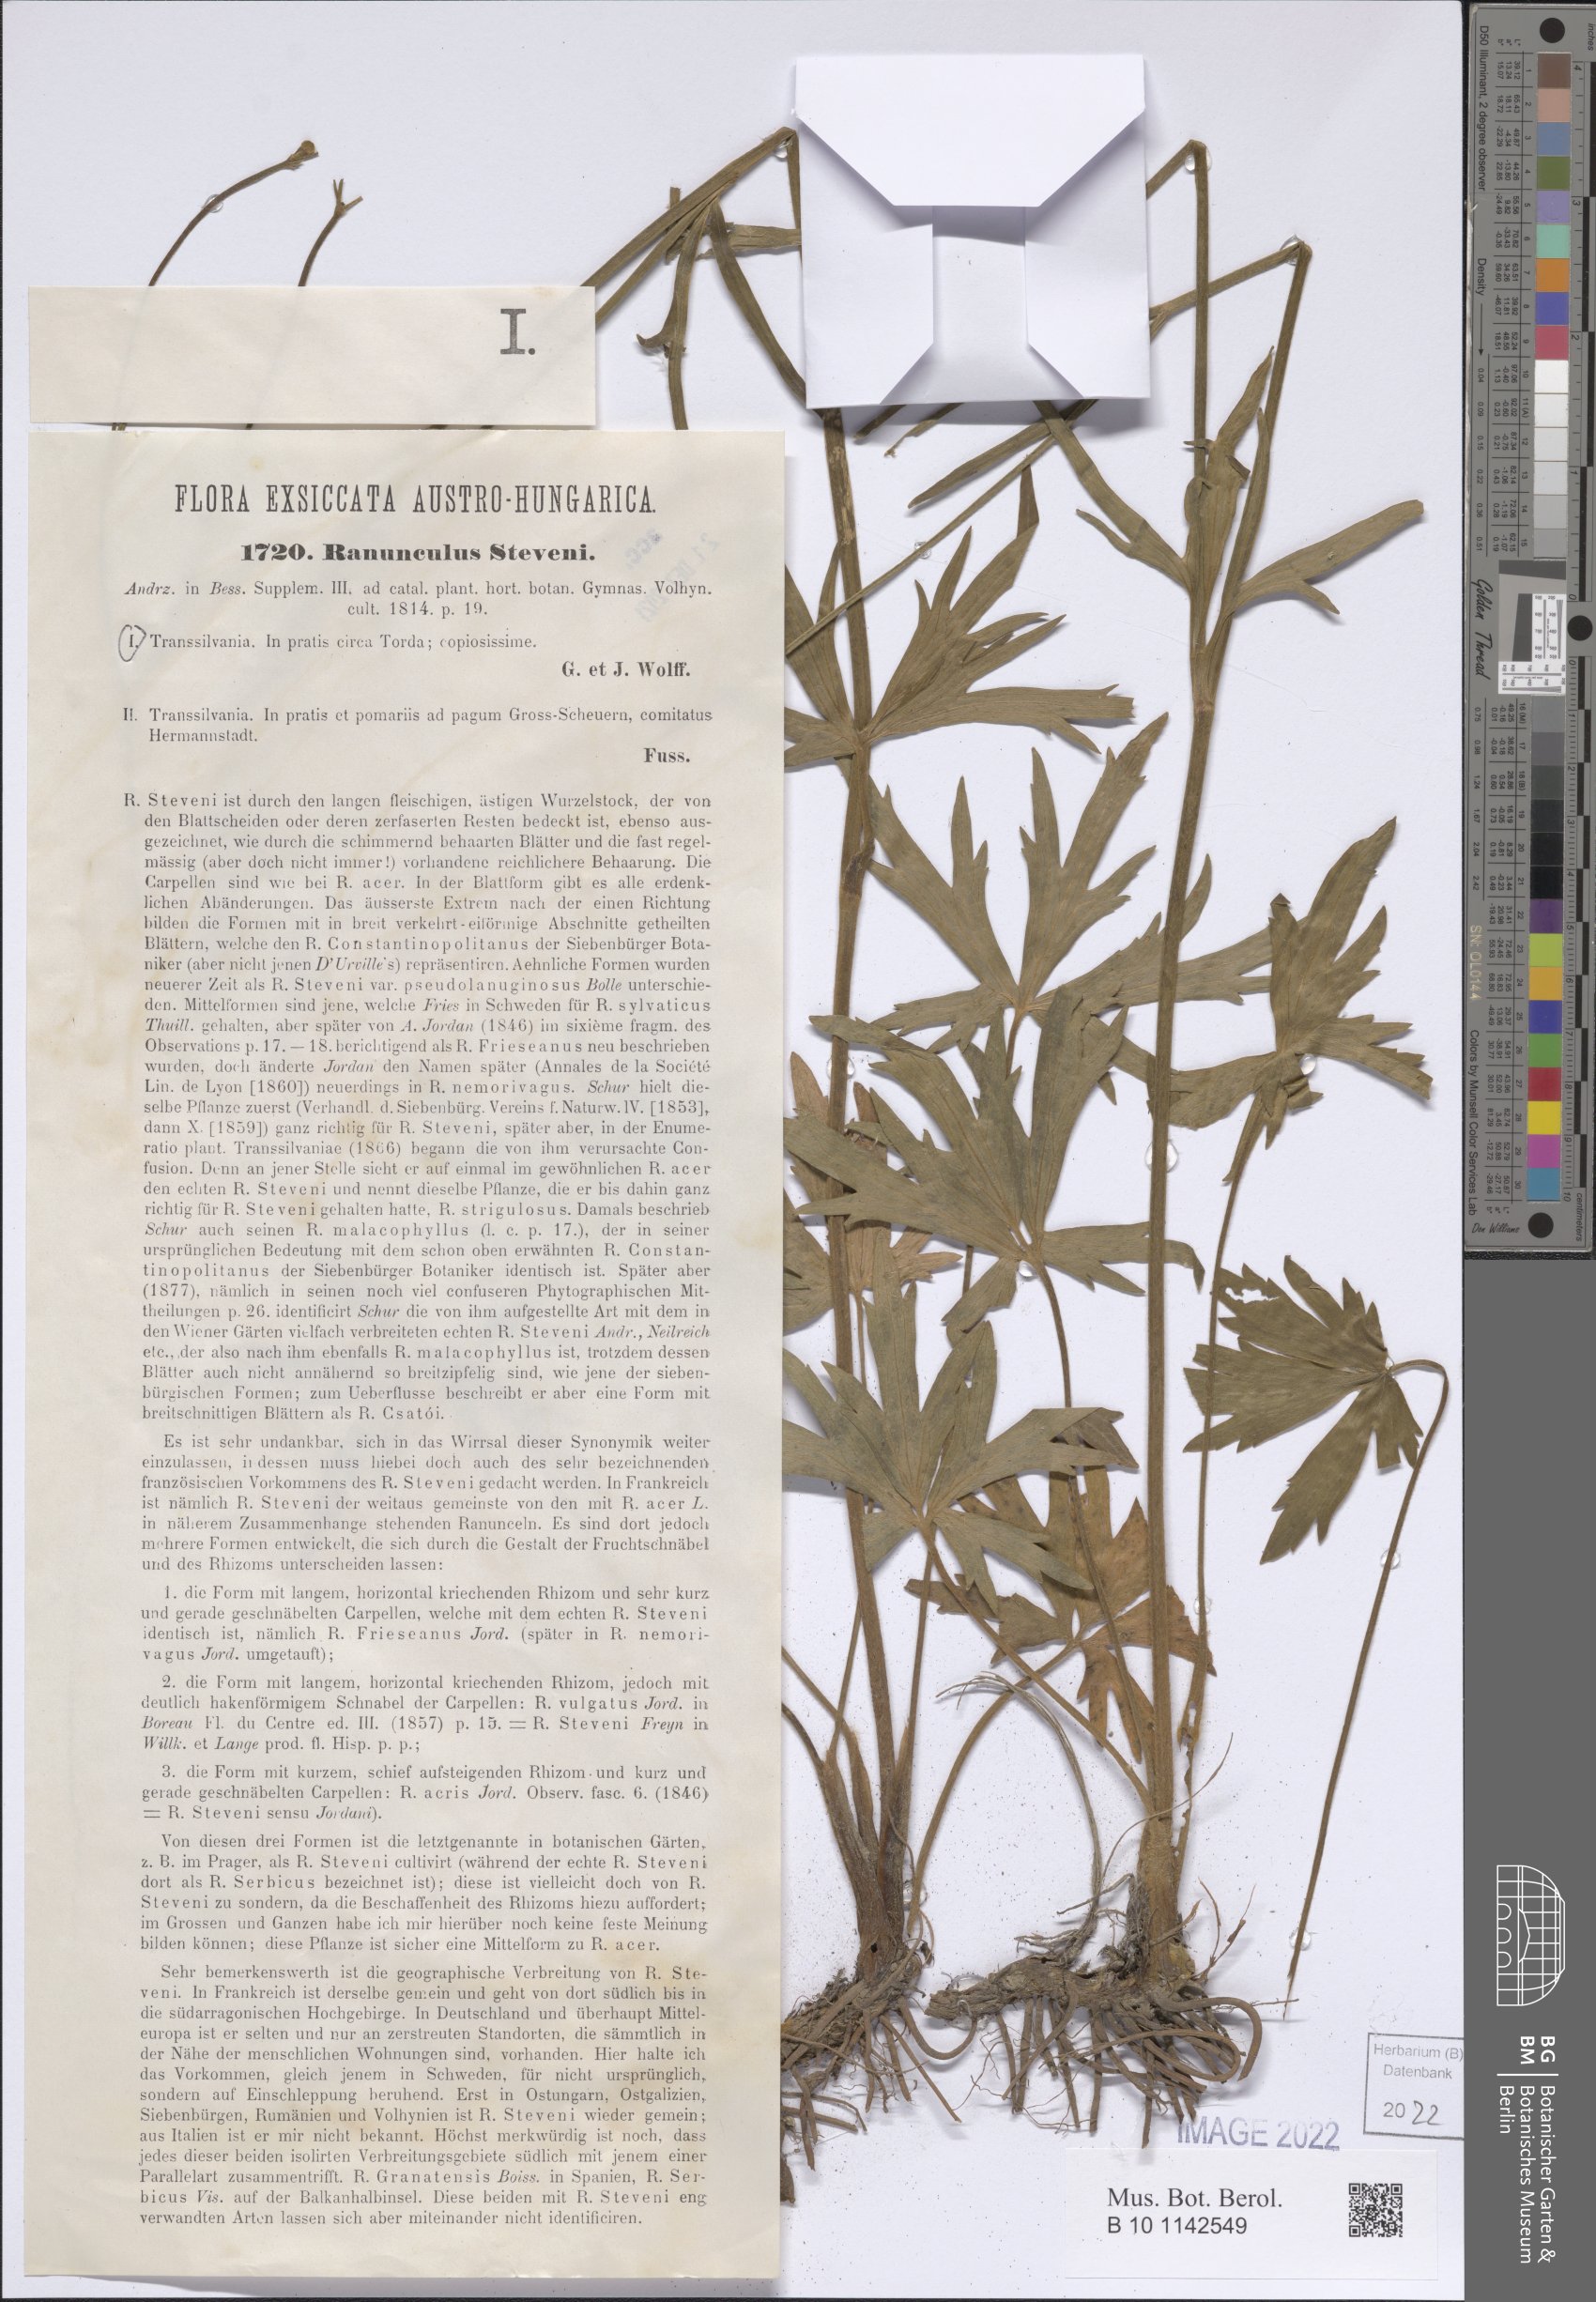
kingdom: Plantae
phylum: Tracheophyta
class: Magnoliopsida
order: Ranunculales
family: Ranunculaceae
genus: Ranunculus
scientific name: Ranunculus japonicus
